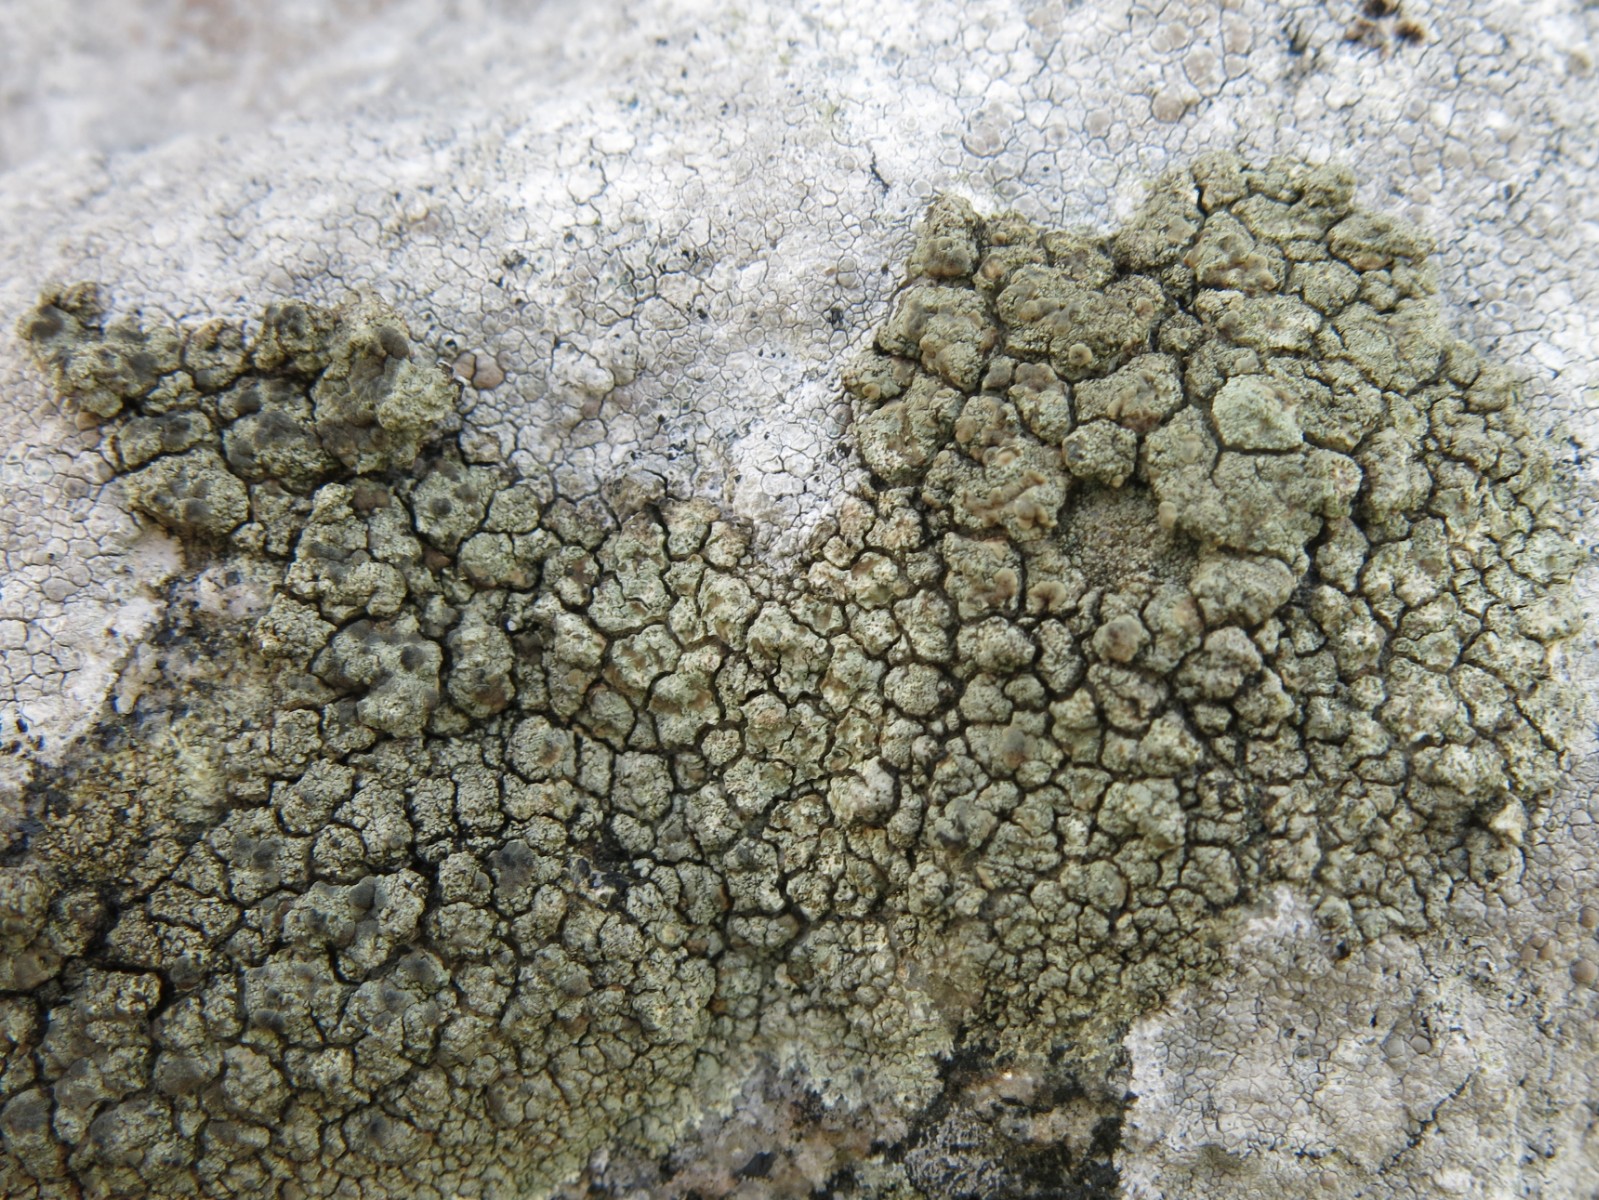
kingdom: Fungi
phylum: Ascomycota
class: Lecanoromycetes
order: Lecanorales
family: Lecanoraceae
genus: Glaucomaria
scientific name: Glaucomaria sulphurea
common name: svovlgul kantskivelav
